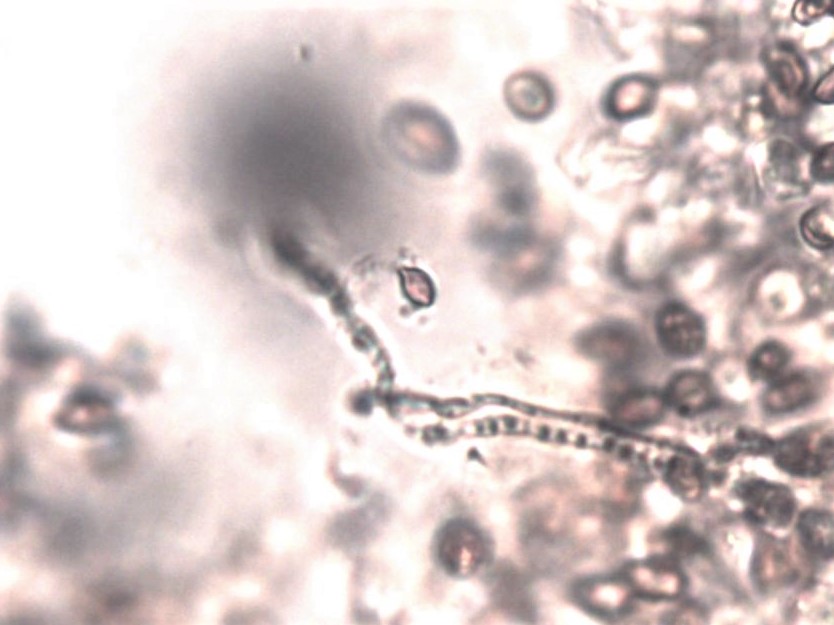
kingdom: Fungi
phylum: Basidiomycota
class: Agaricomycetes
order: Agaricales
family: Strophariaceae
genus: Deconica
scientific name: Deconica montana
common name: rødbrun stråhat
